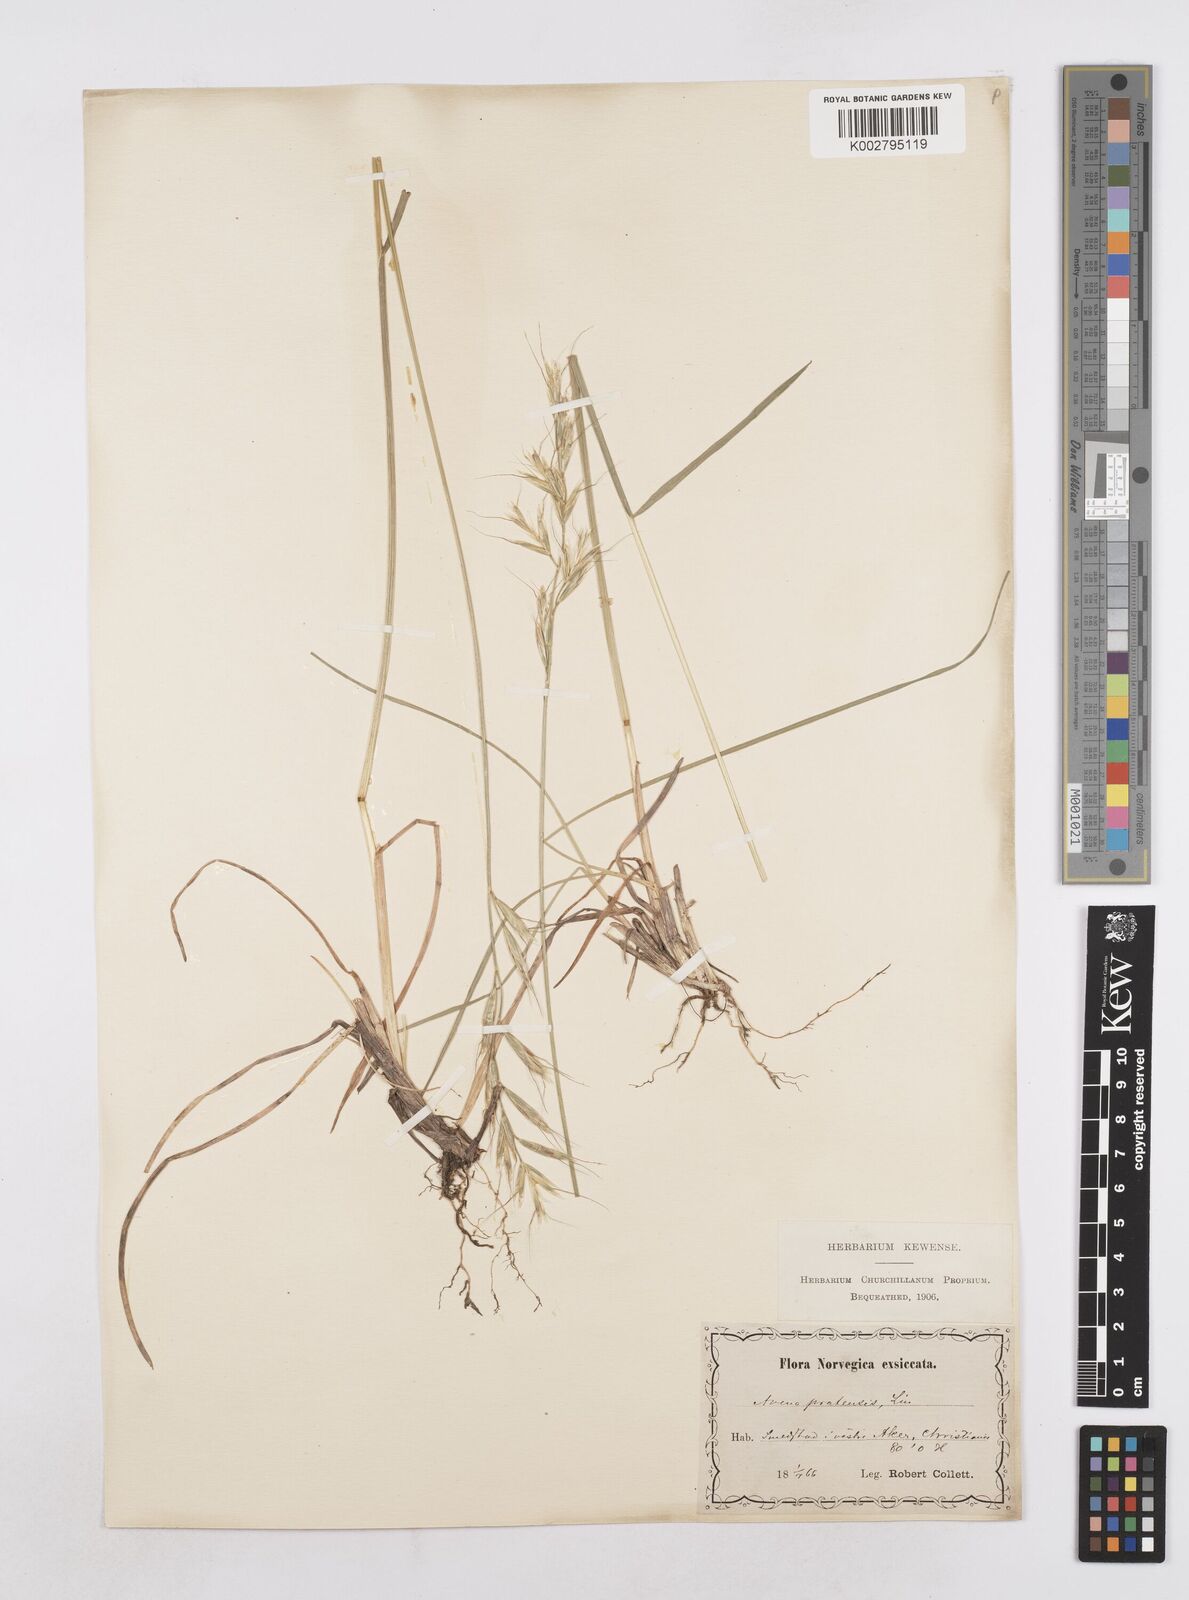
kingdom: Plantae
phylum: Tracheophyta
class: Liliopsida
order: Poales
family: Poaceae
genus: Helictochloa
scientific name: Helictochloa pratensis
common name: Meadow oat grass
